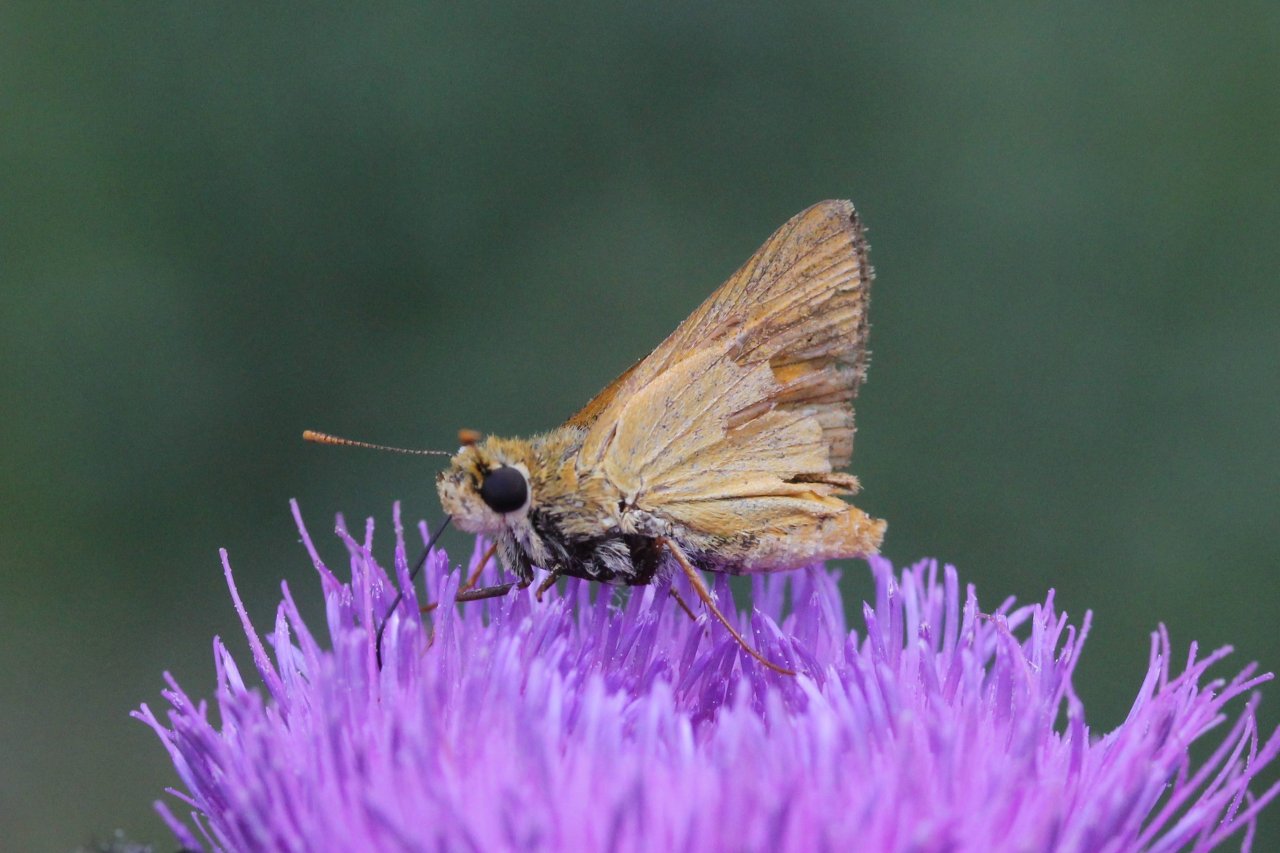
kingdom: Animalia
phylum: Arthropoda
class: Insecta
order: Lepidoptera
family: Hesperiidae
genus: Atrytone
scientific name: Atrytone delaware
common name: Delaware Skipper
